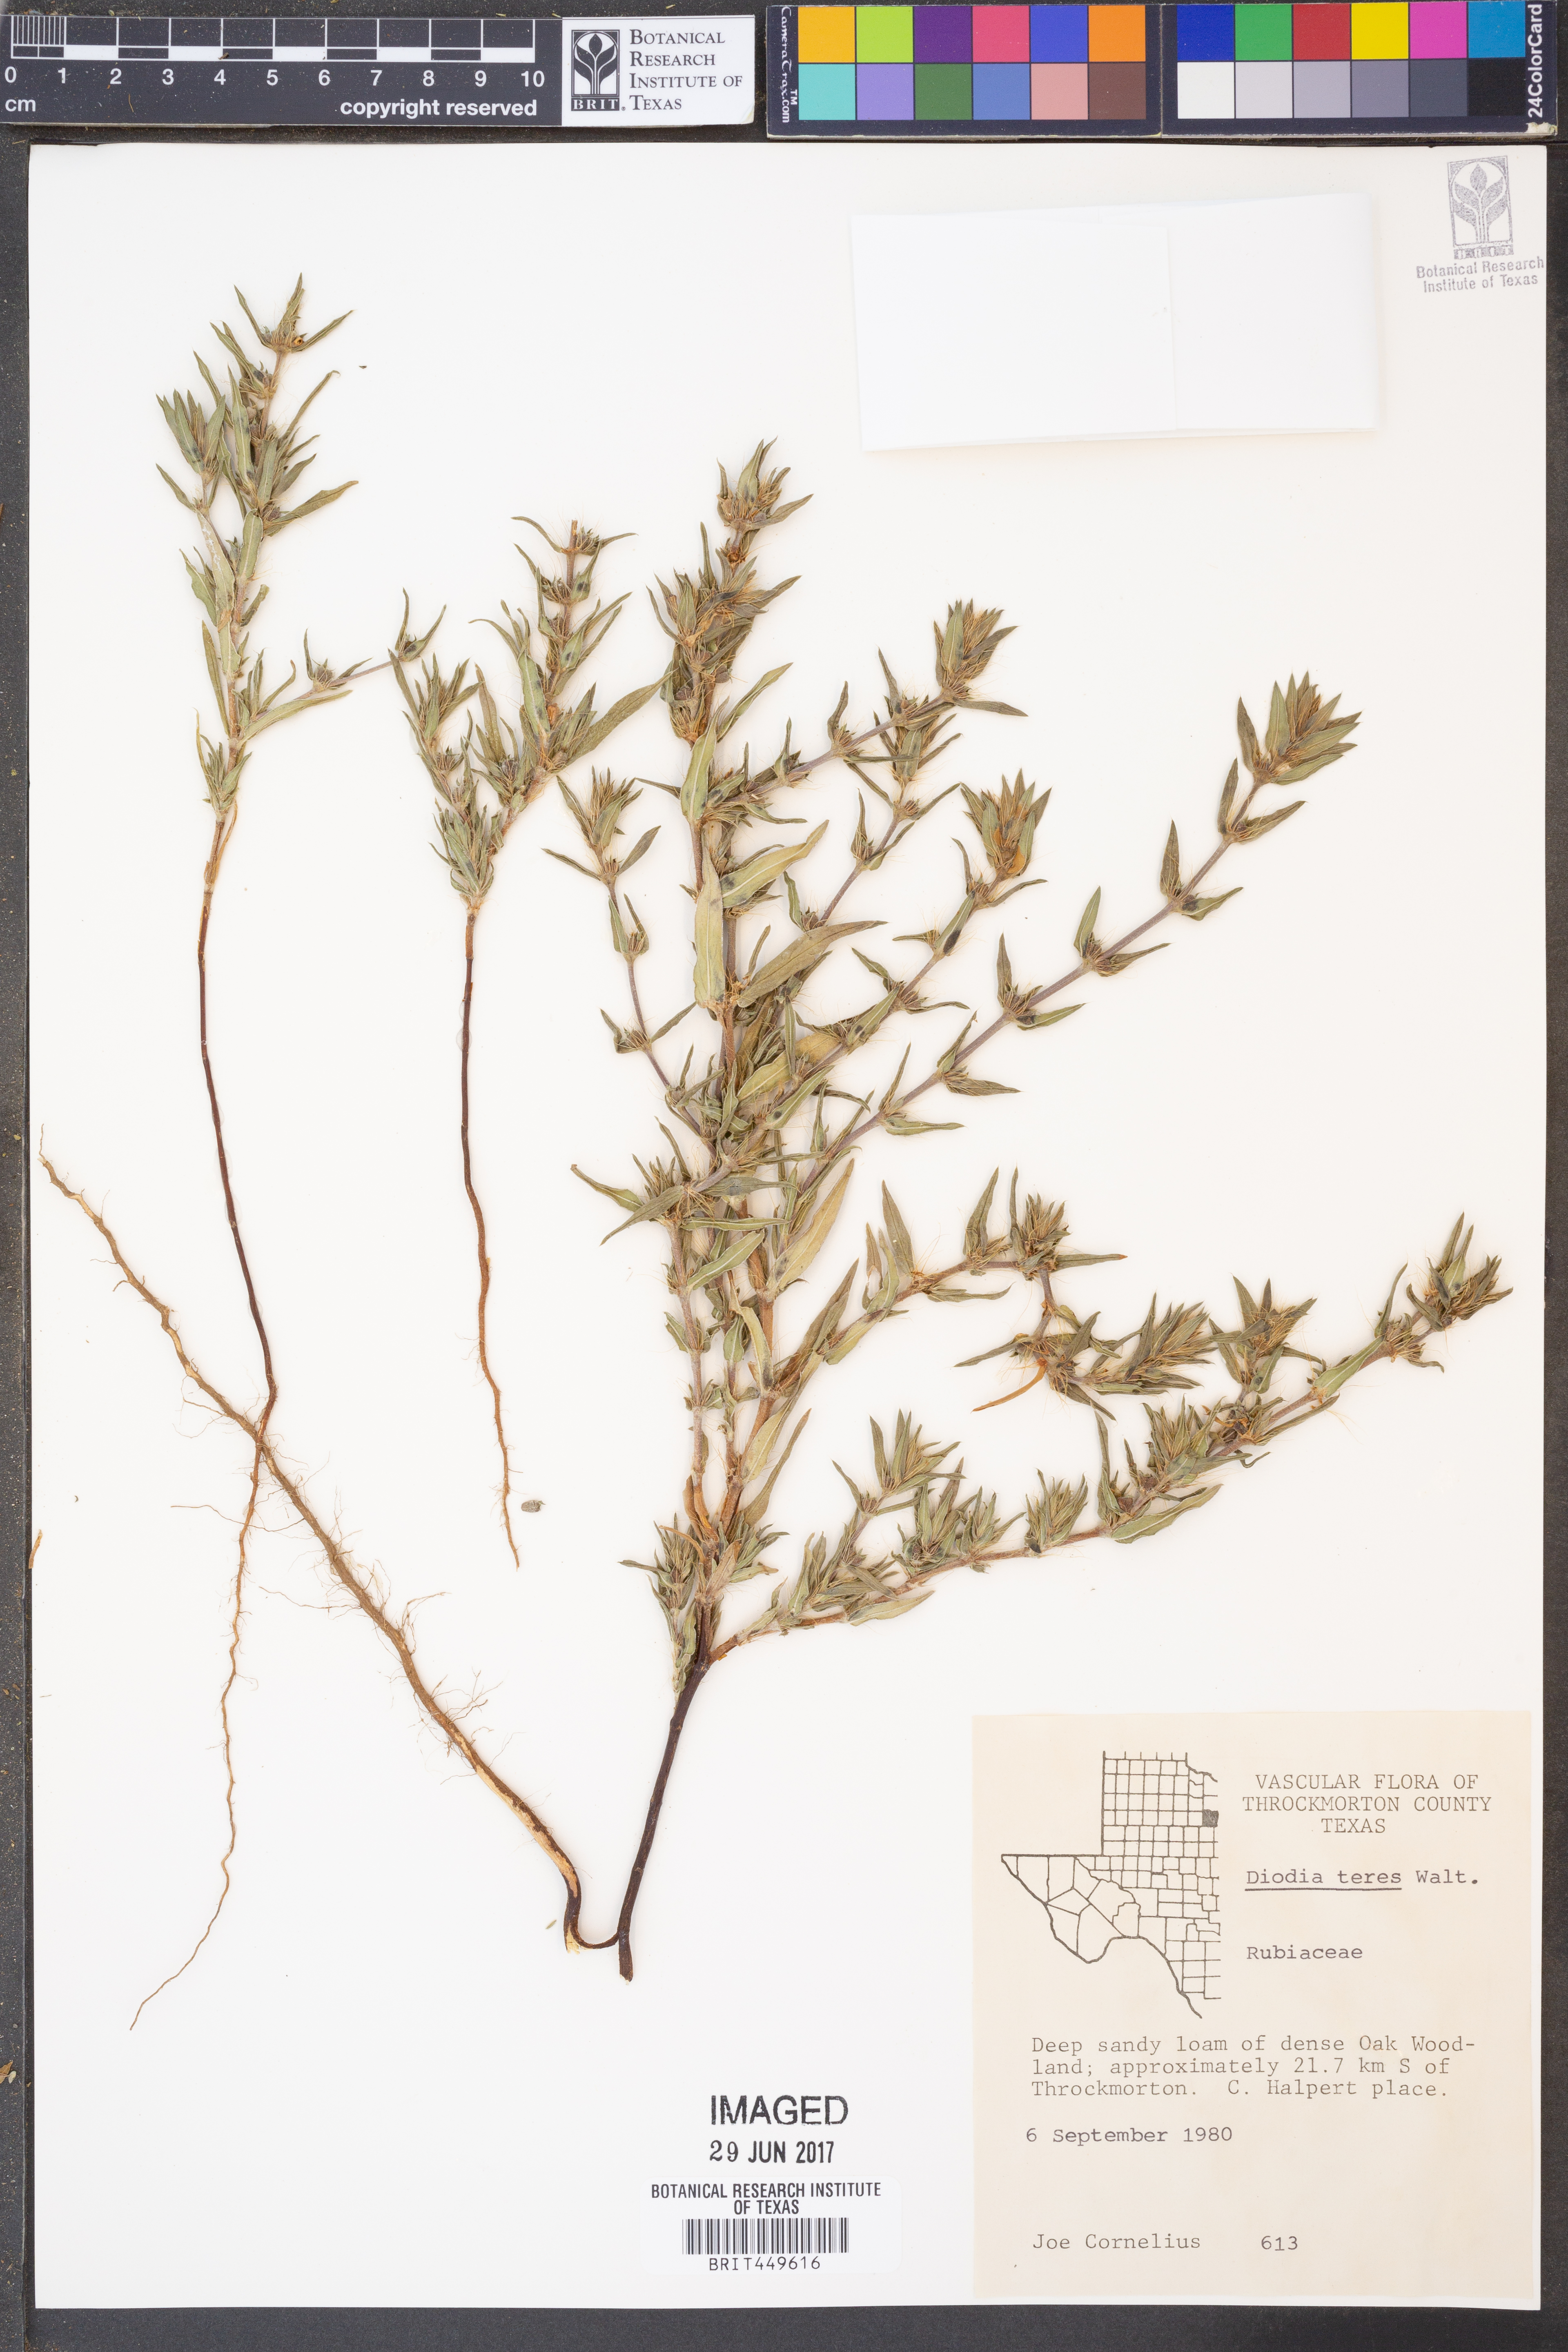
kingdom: Plantae
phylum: Tracheophyta
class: Magnoliopsida
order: Gentianales
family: Rubiaceae
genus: Hexasepalum
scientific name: Hexasepalum teres
